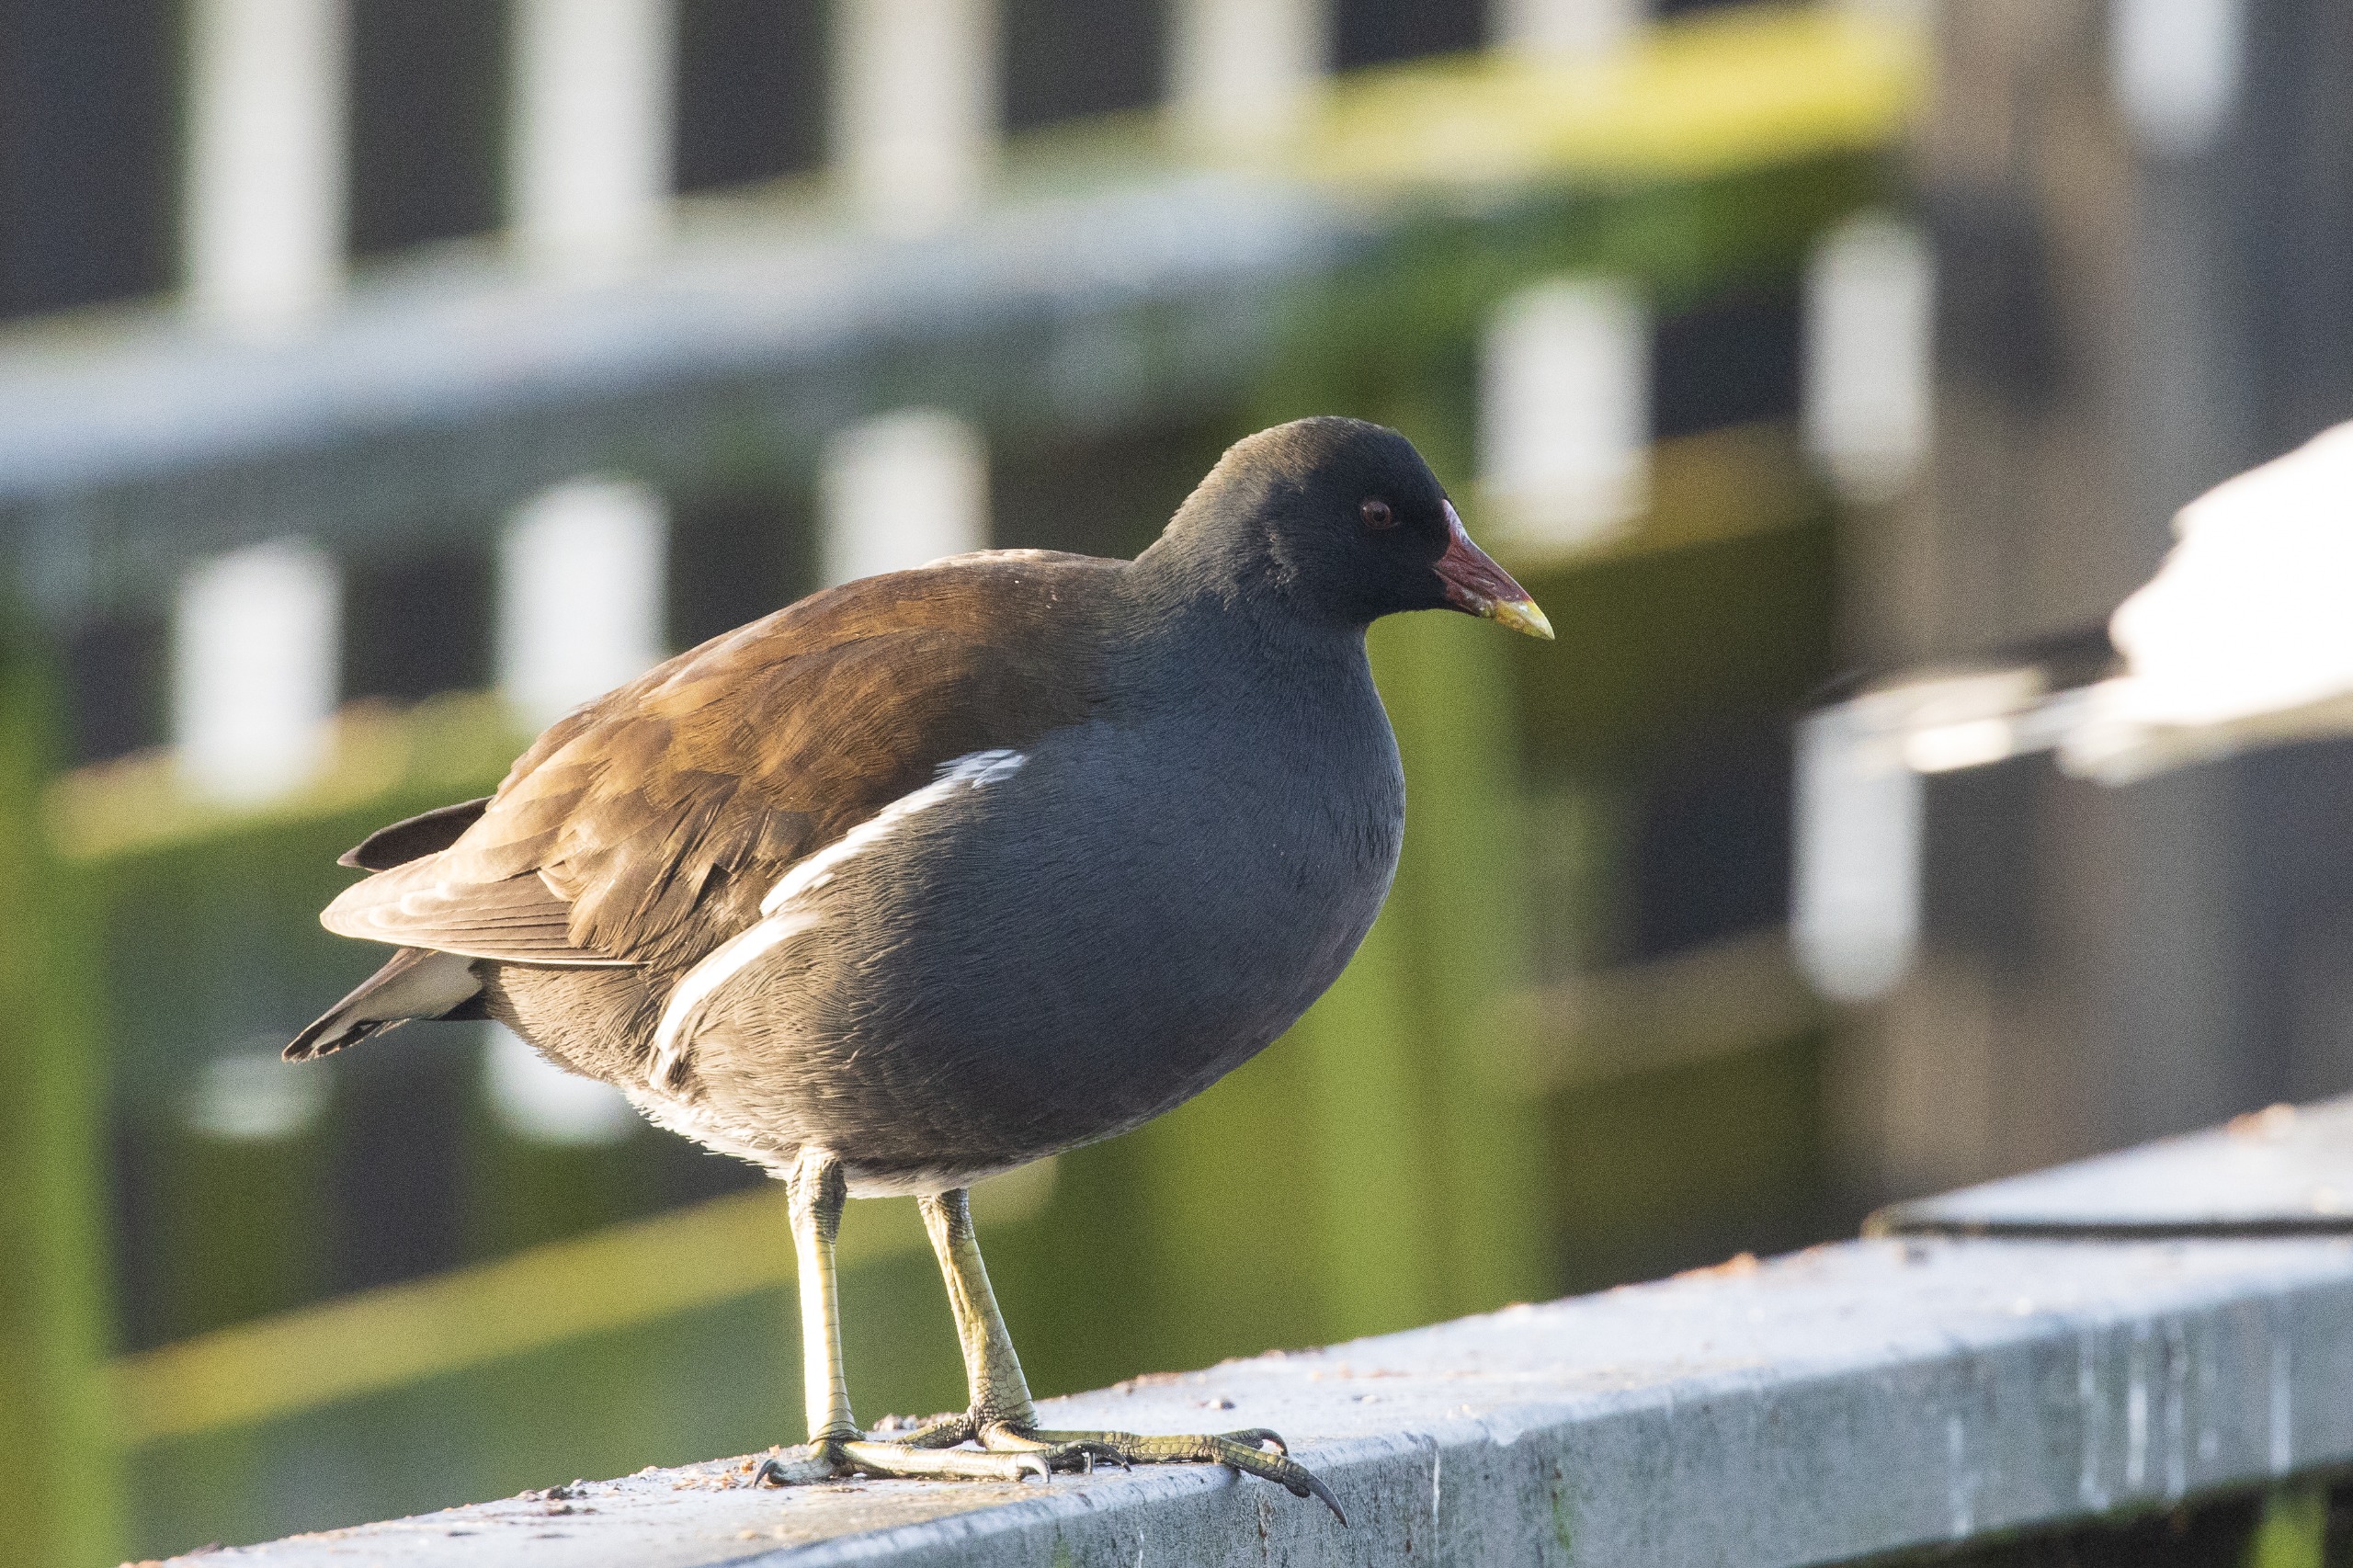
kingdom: Animalia
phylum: Chordata
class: Aves
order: Gruiformes
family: Rallidae
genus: Gallinula
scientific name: Gallinula chloropus
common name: Grønbenet rørhøne
